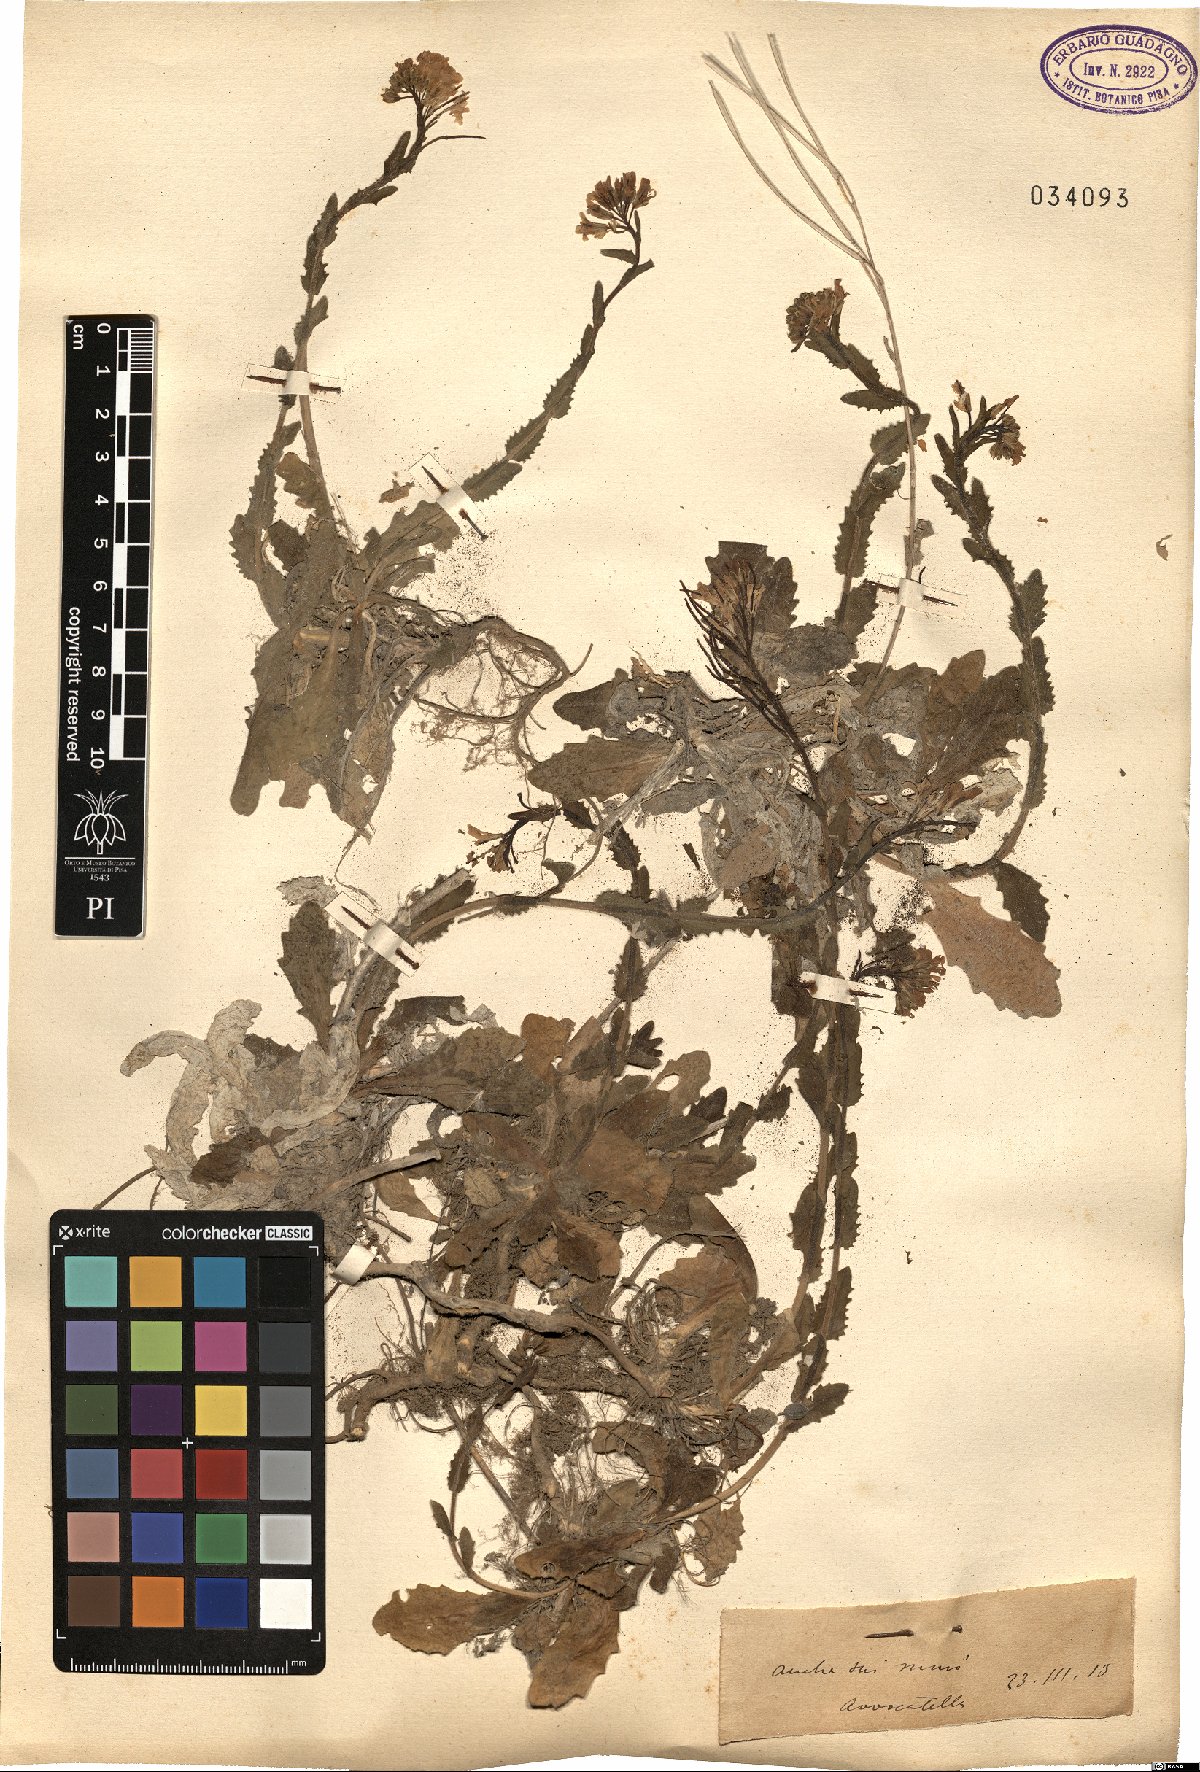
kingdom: Plantae
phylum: Tracheophyta
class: Magnoliopsida
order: Brassicales
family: Brassicaceae
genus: Arabis
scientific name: Arabis
